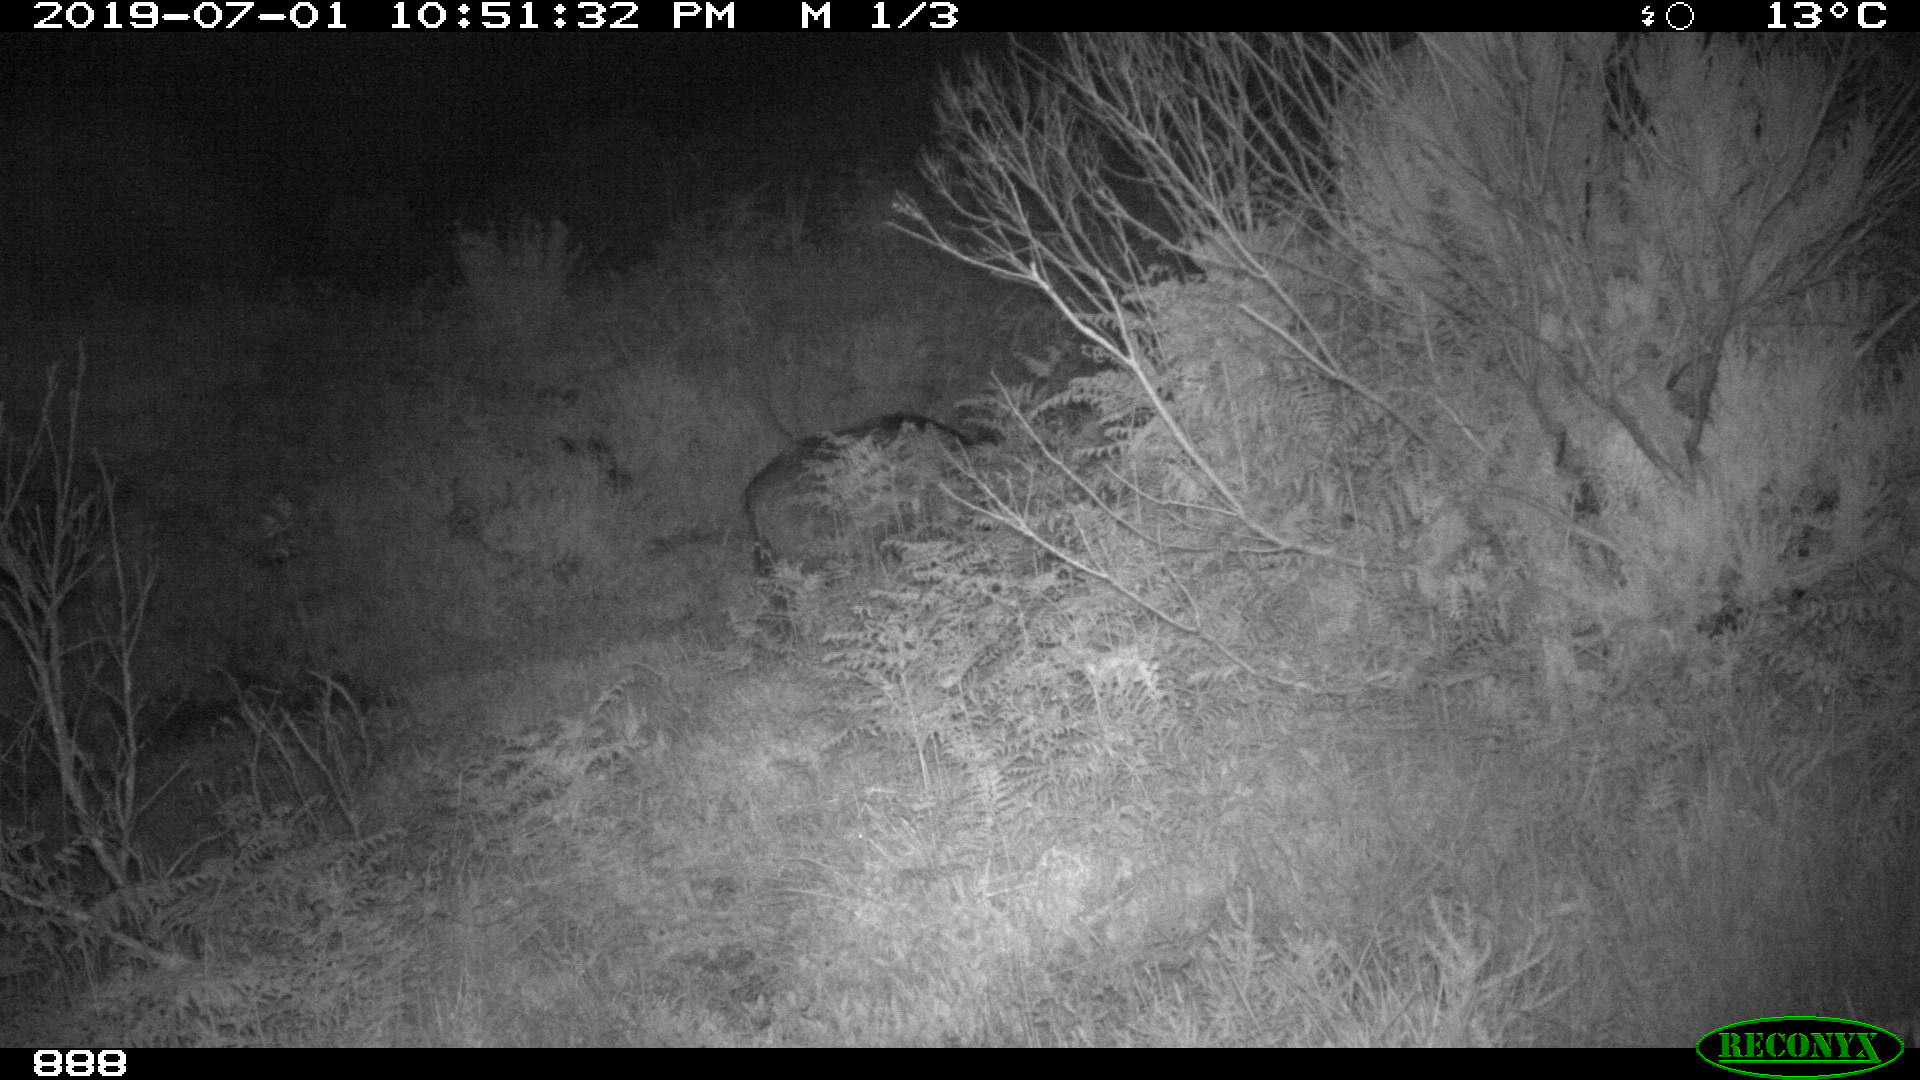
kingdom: Animalia
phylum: Chordata
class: Mammalia
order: Artiodactyla
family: Suidae
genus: Sus
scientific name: Sus scrofa
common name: Wild boar
